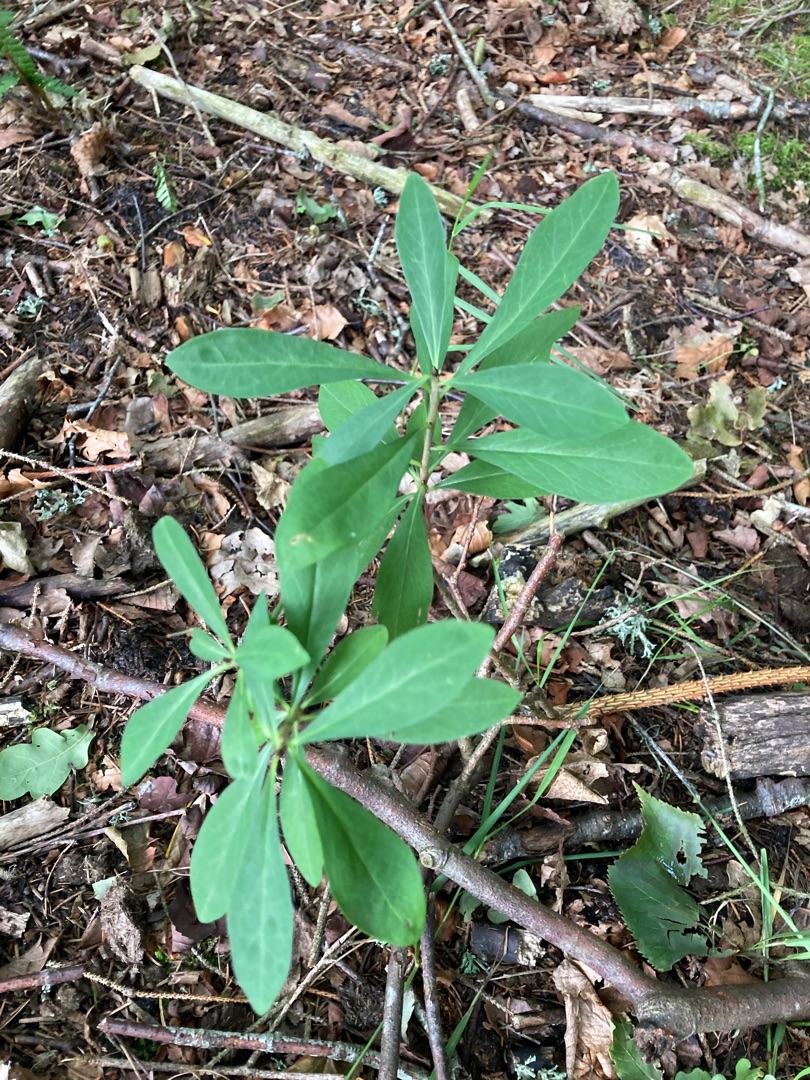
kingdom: Plantae
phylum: Tracheophyta
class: Magnoliopsida
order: Malvales
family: Thymelaeaceae
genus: Daphne
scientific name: Daphne mezereum
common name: Pebertræ
